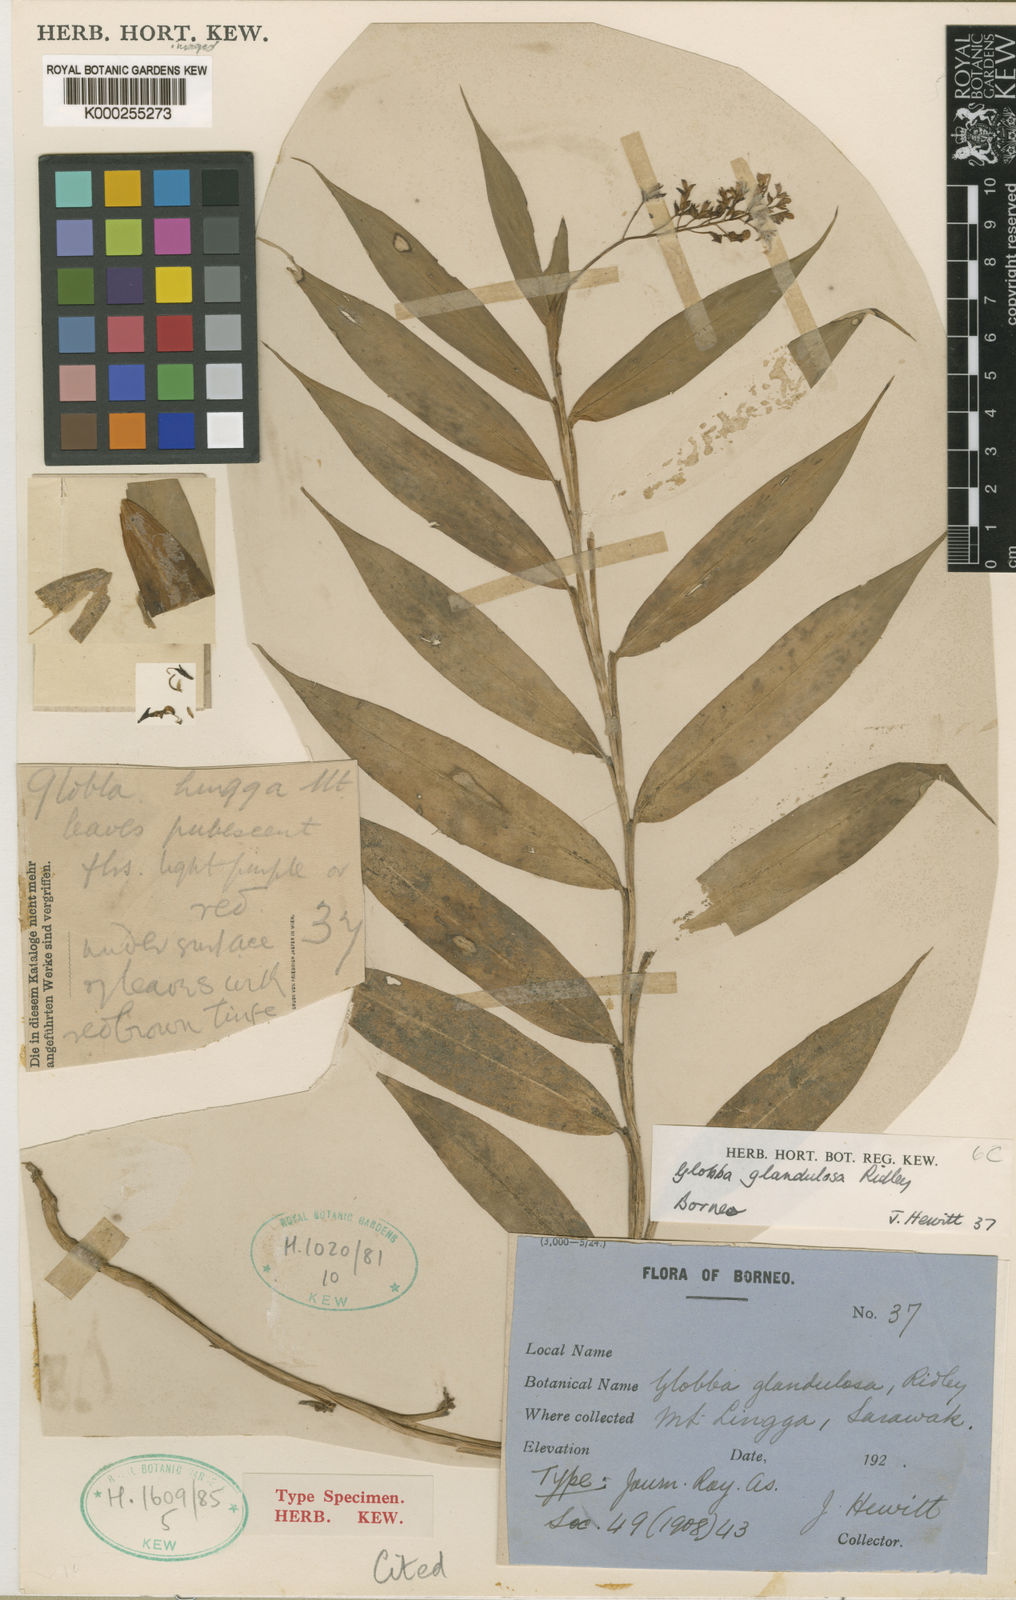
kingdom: Plantae
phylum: Tracheophyta
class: Liliopsida
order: Zingiberales
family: Zingiberaceae
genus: Globba
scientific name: Globba glandulosa
